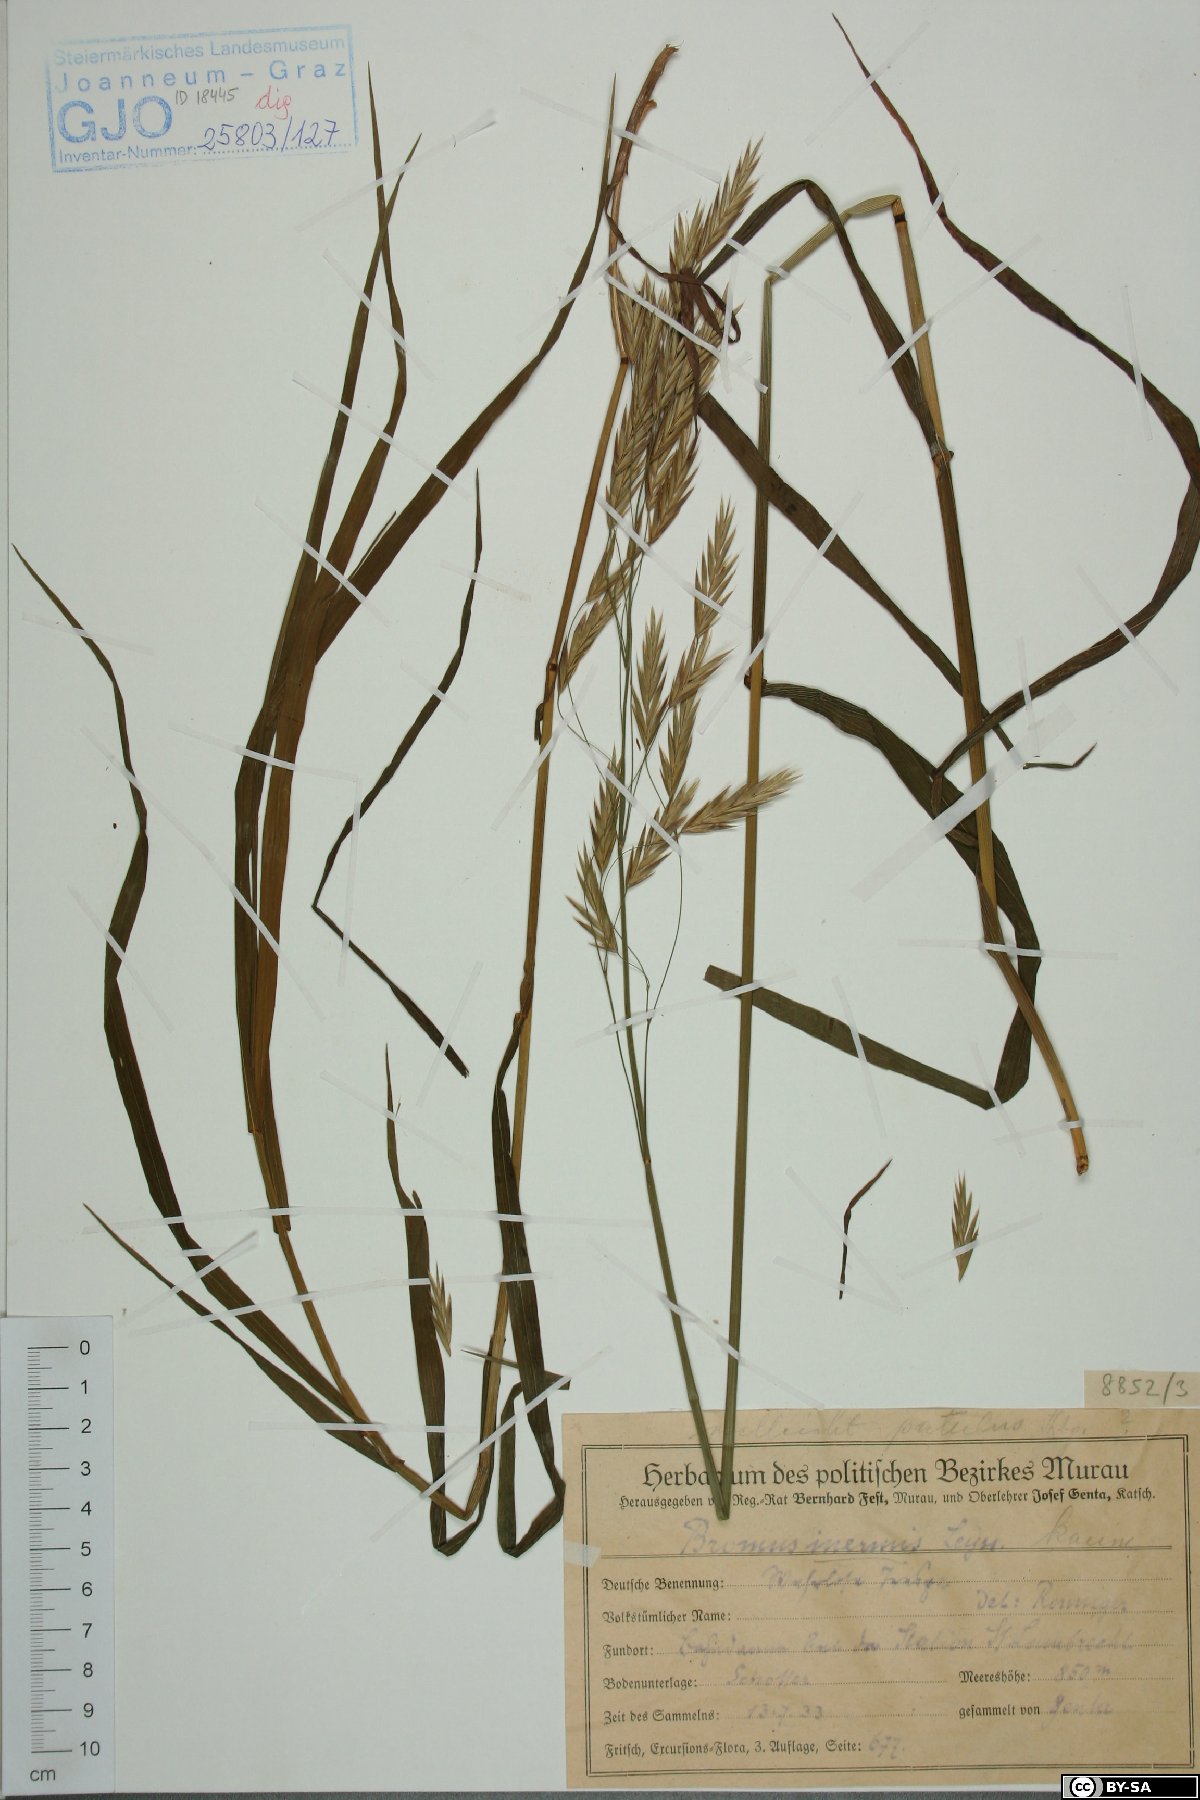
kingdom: Plantae
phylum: Tracheophyta
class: Liliopsida
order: Poales
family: Poaceae
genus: Bromus
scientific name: Bromus inermis
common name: Smooth brome
